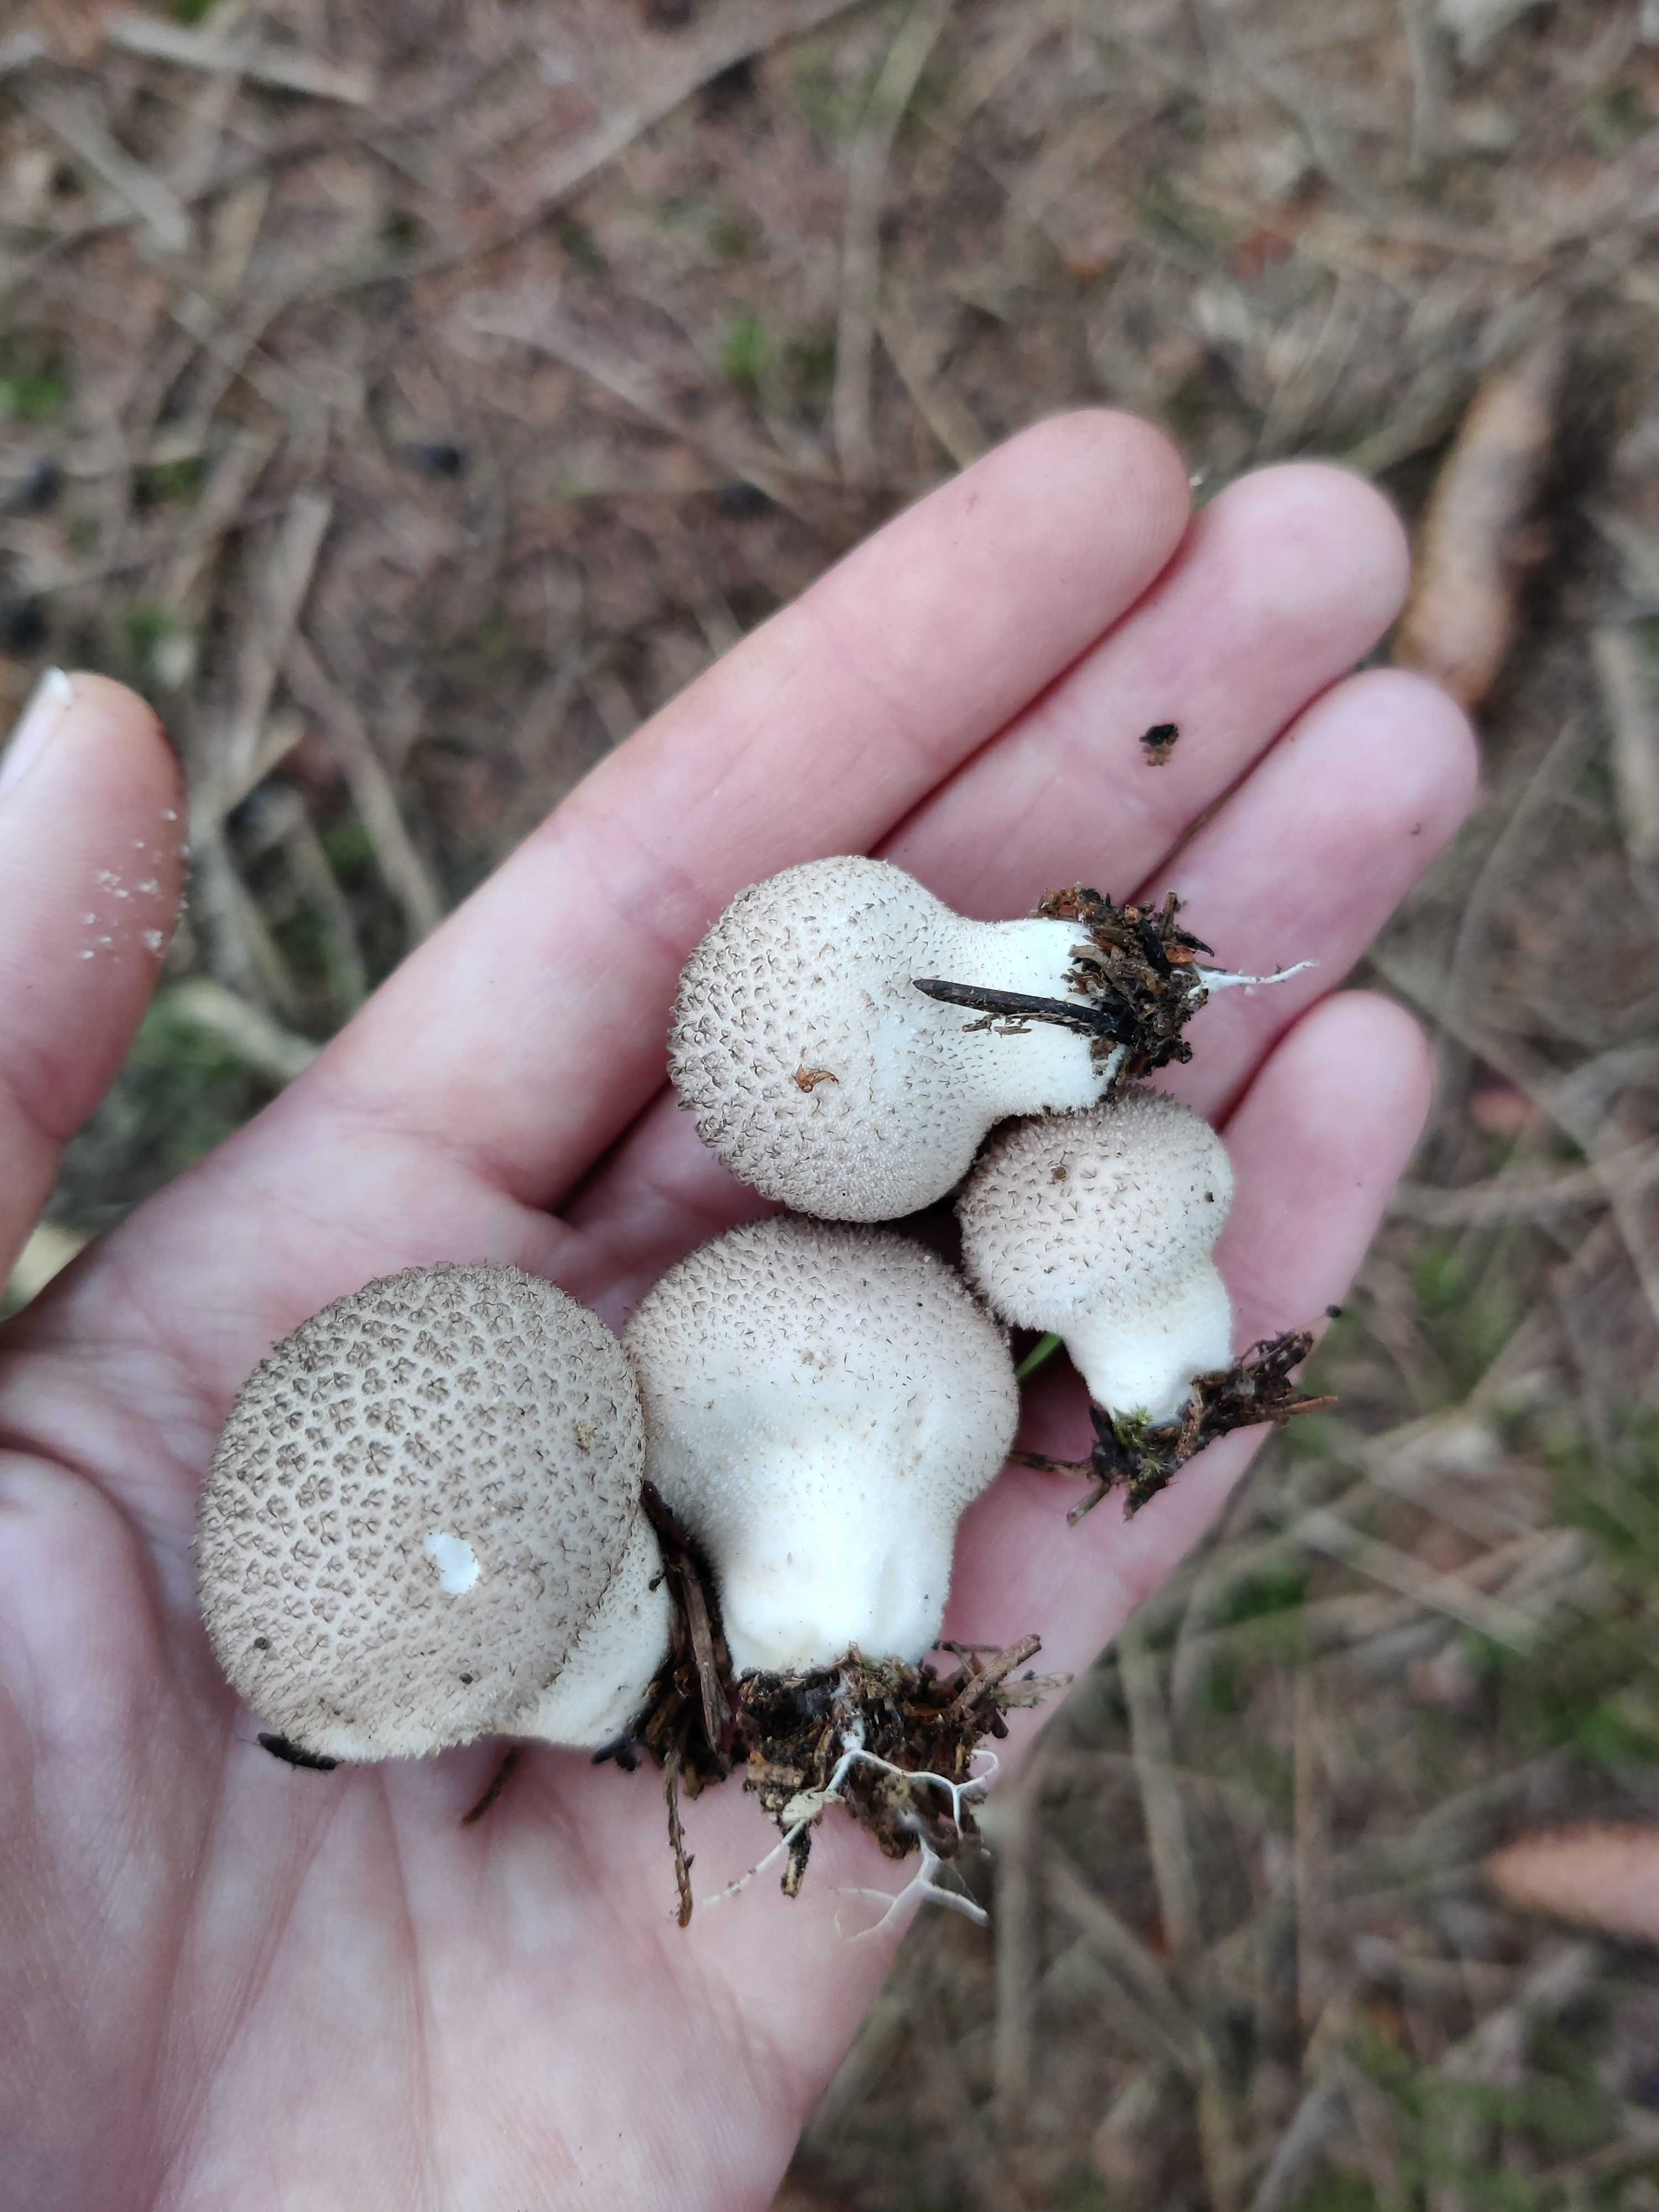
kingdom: Fungi
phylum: Basidiomycota
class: Agaricomycetes
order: Agaricales
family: Lycoperdaceae
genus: Lycoperdon
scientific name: Lycoperdon perlatum
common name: krystal-støvbold
